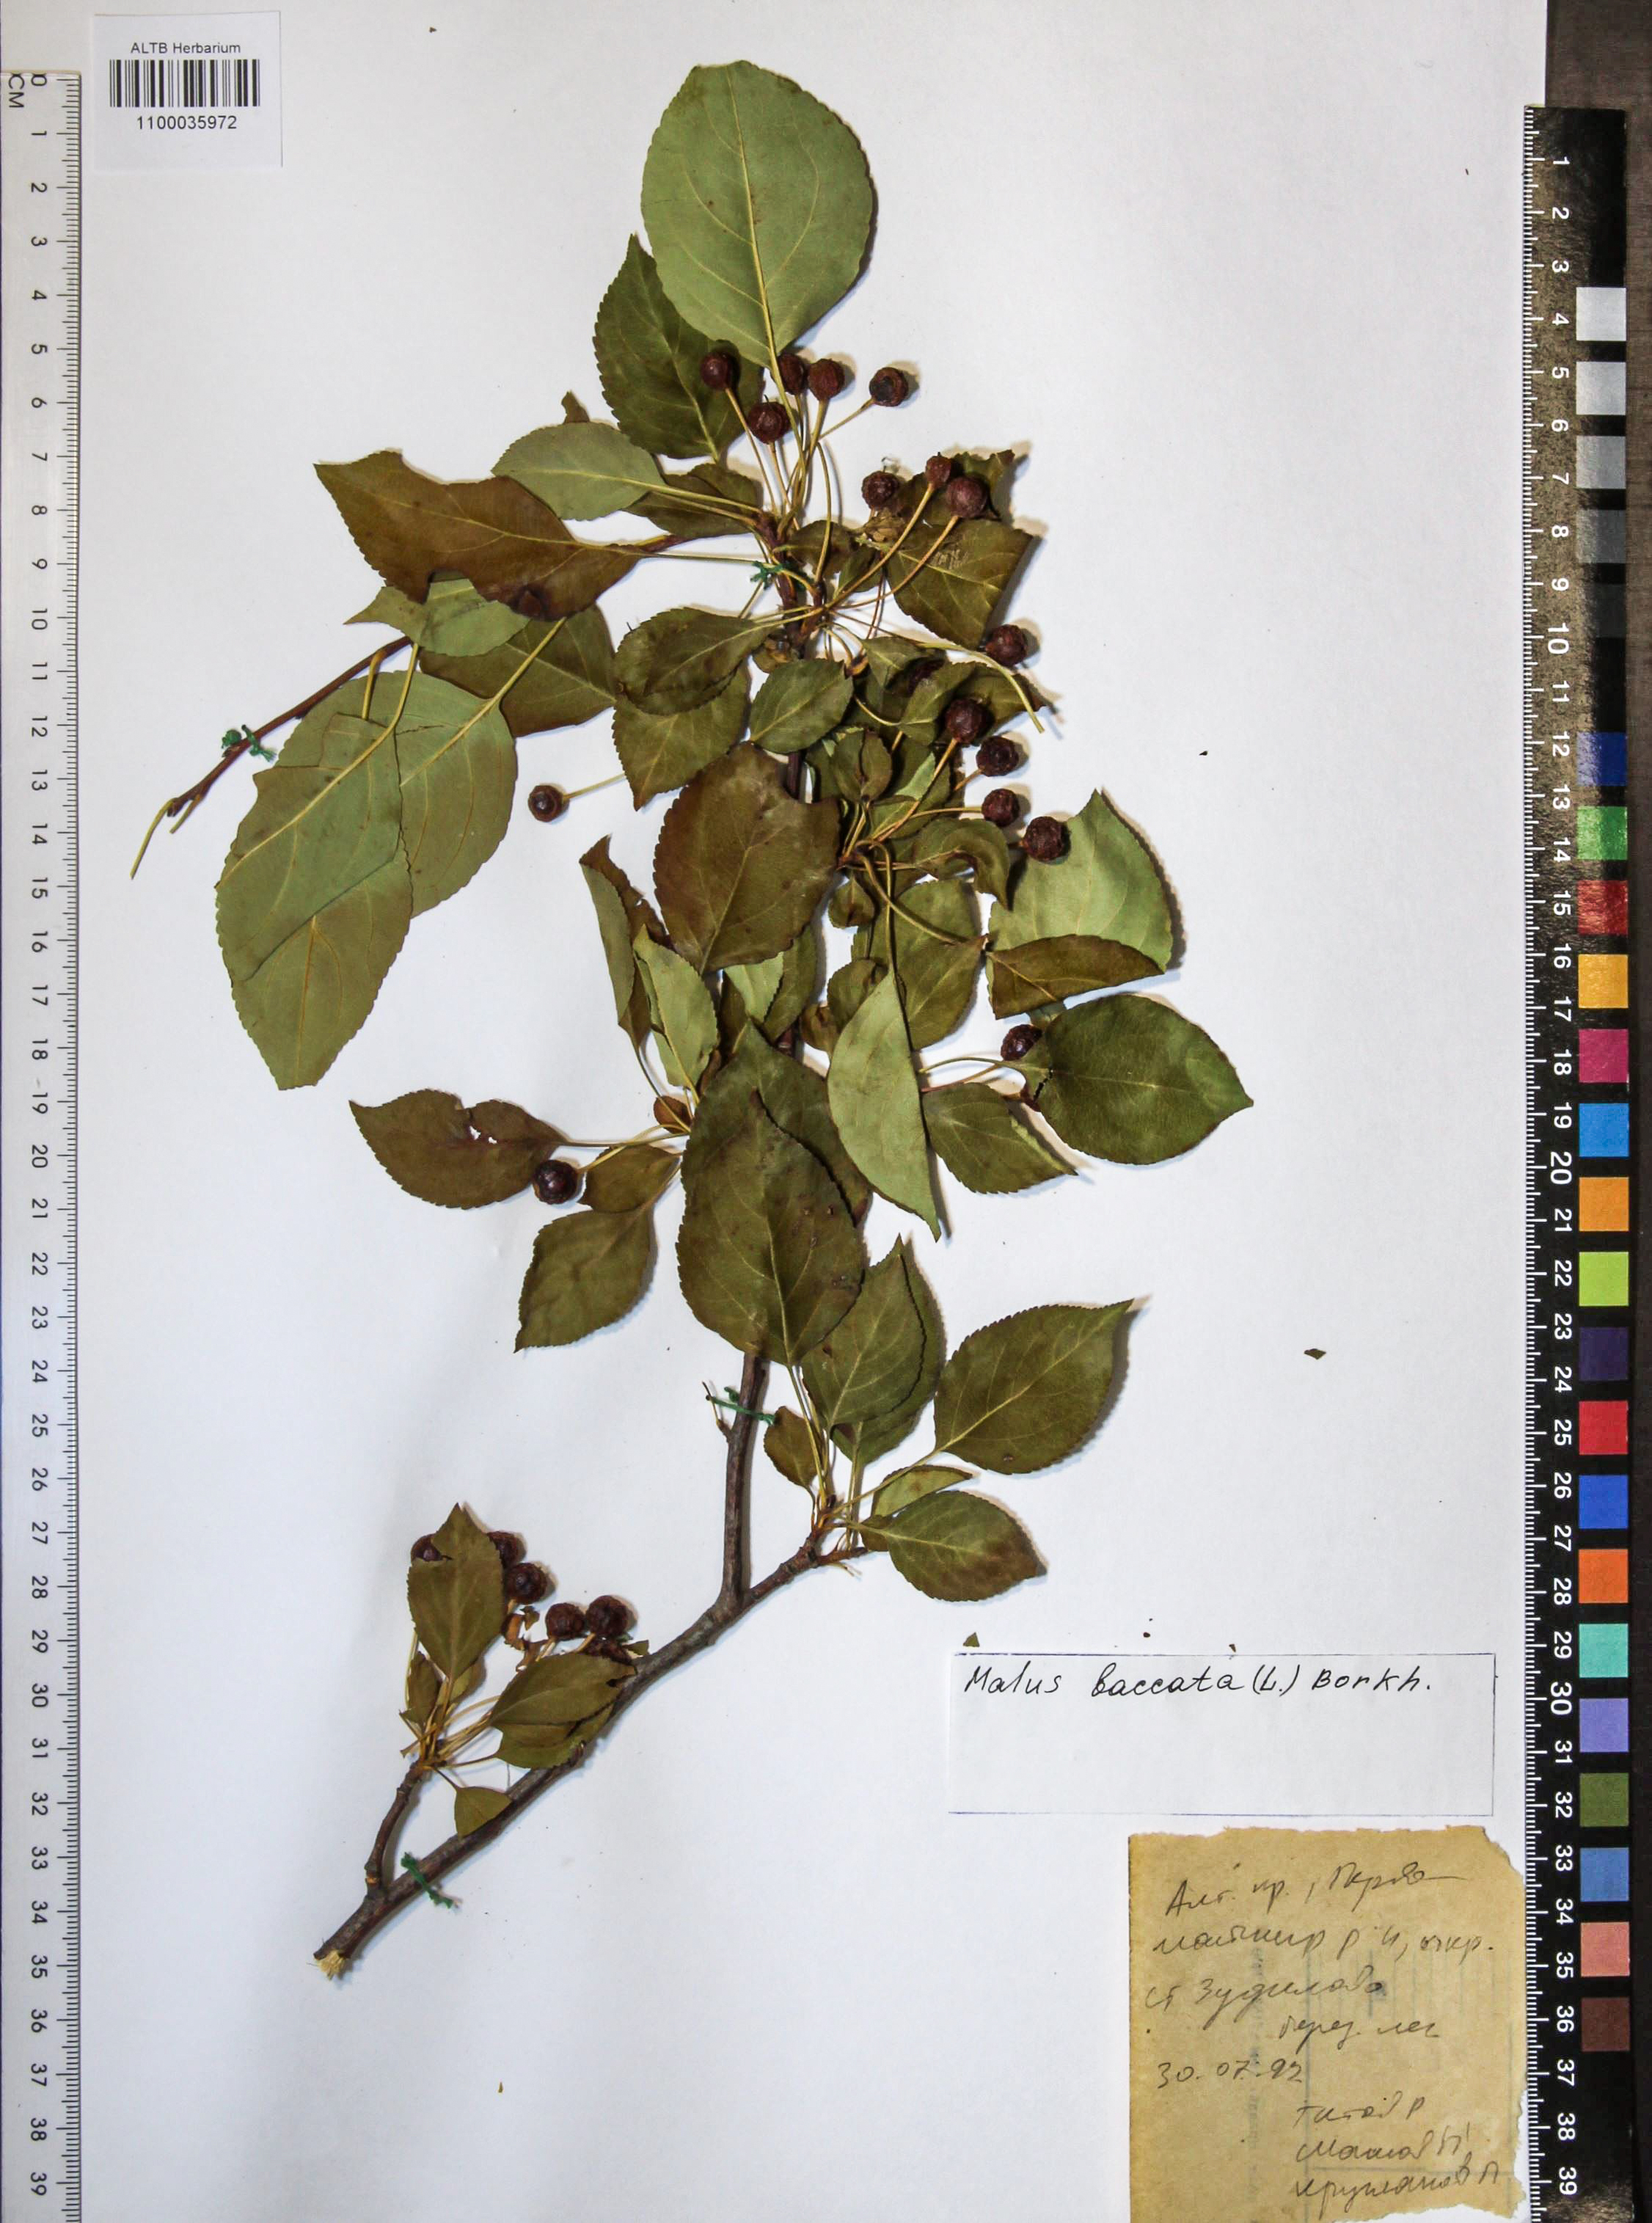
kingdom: Plantae
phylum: Tracheophyta
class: Magnoliopsida
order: Rosales
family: Rosaceae
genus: Malus
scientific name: Malus baccata
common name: Siberian crab
